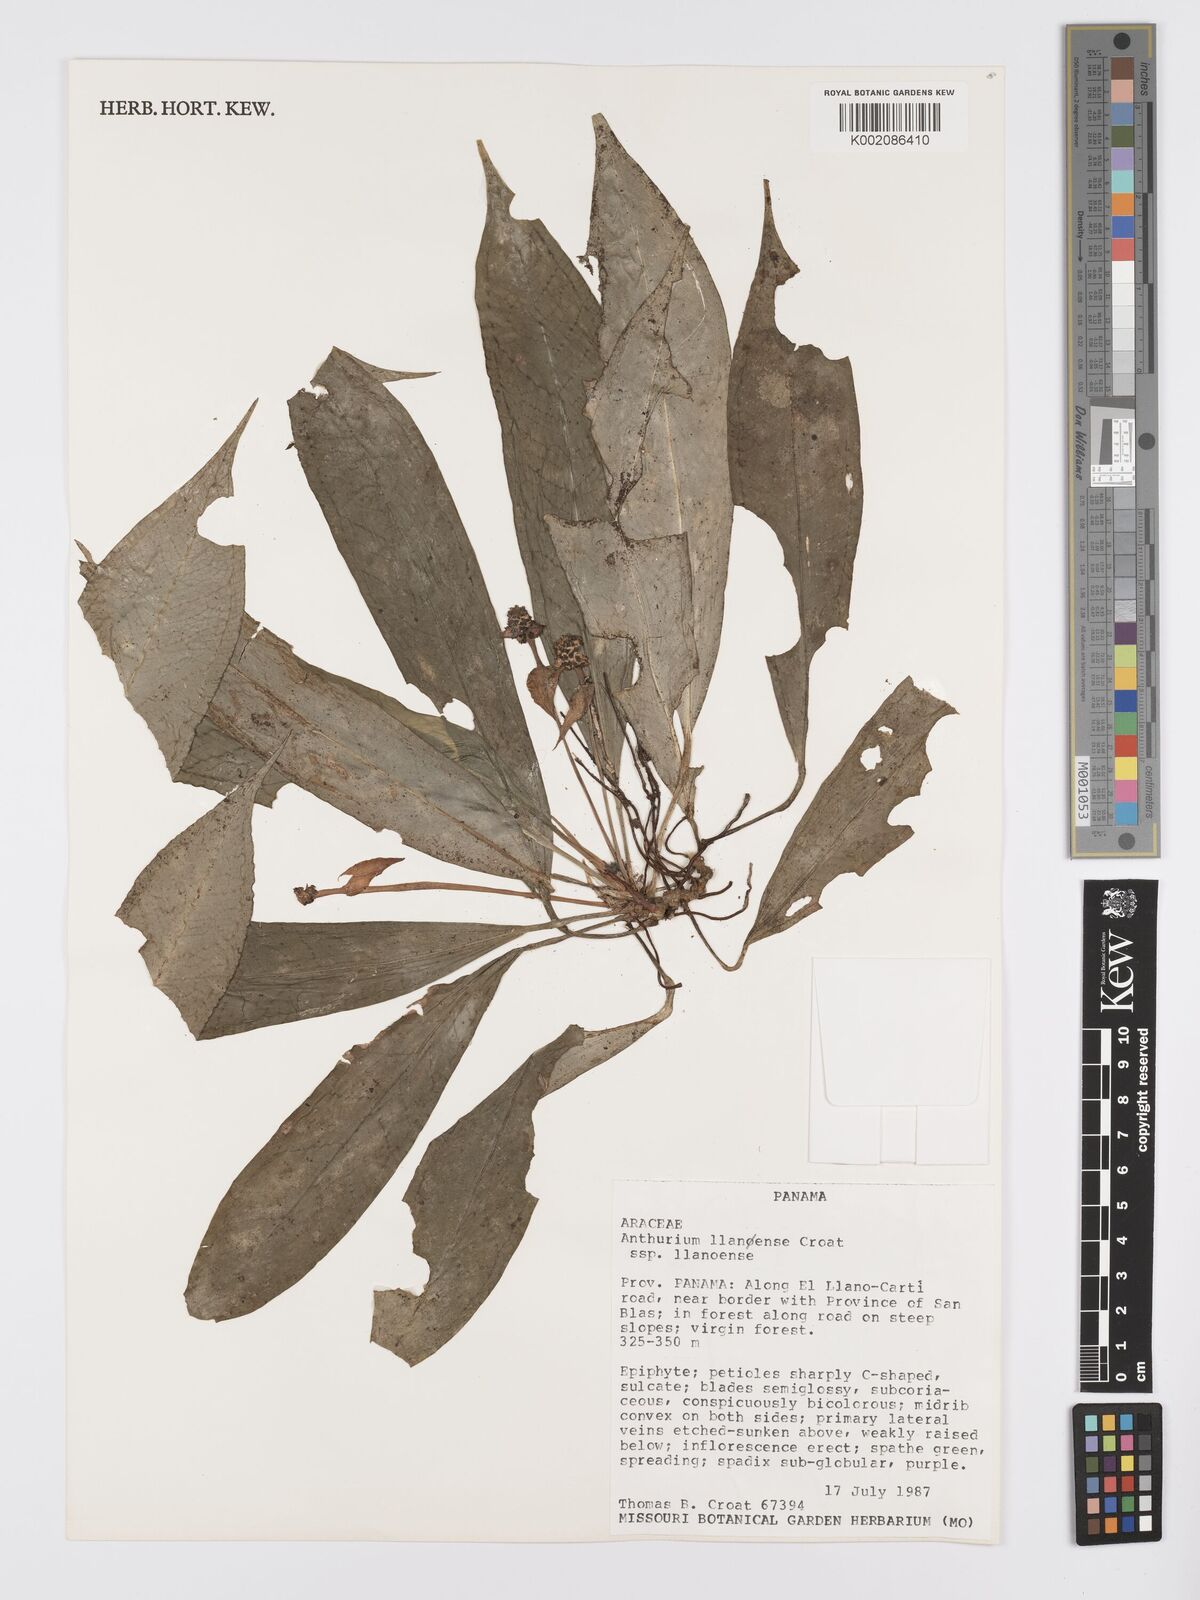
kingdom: Plantae
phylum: Tracheophyta
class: Liliopsida
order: Alismatales
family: Araceae
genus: Anthurium
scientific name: Anthurium llanense
